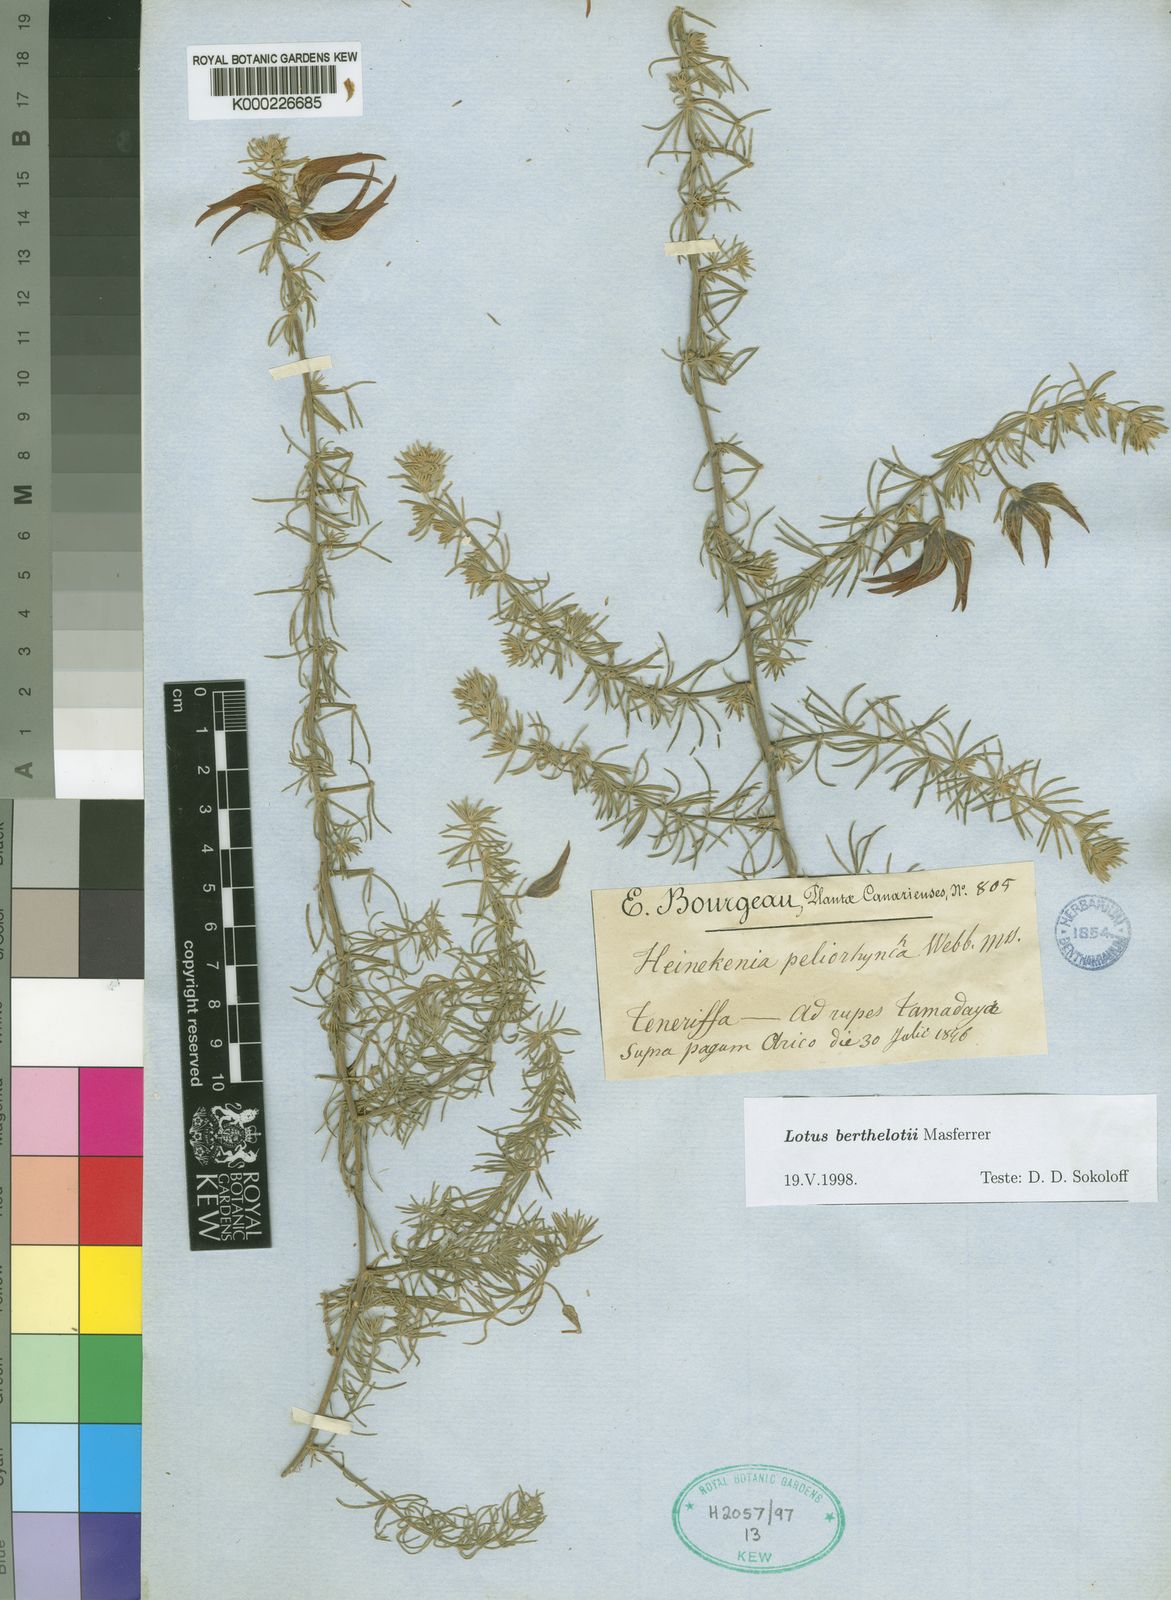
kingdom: Plantae
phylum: Tracheophyta
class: Magnoliopsida
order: Fabales
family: Fabaceae
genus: Lotus
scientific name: Lotus berthelotii
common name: Coralgem
